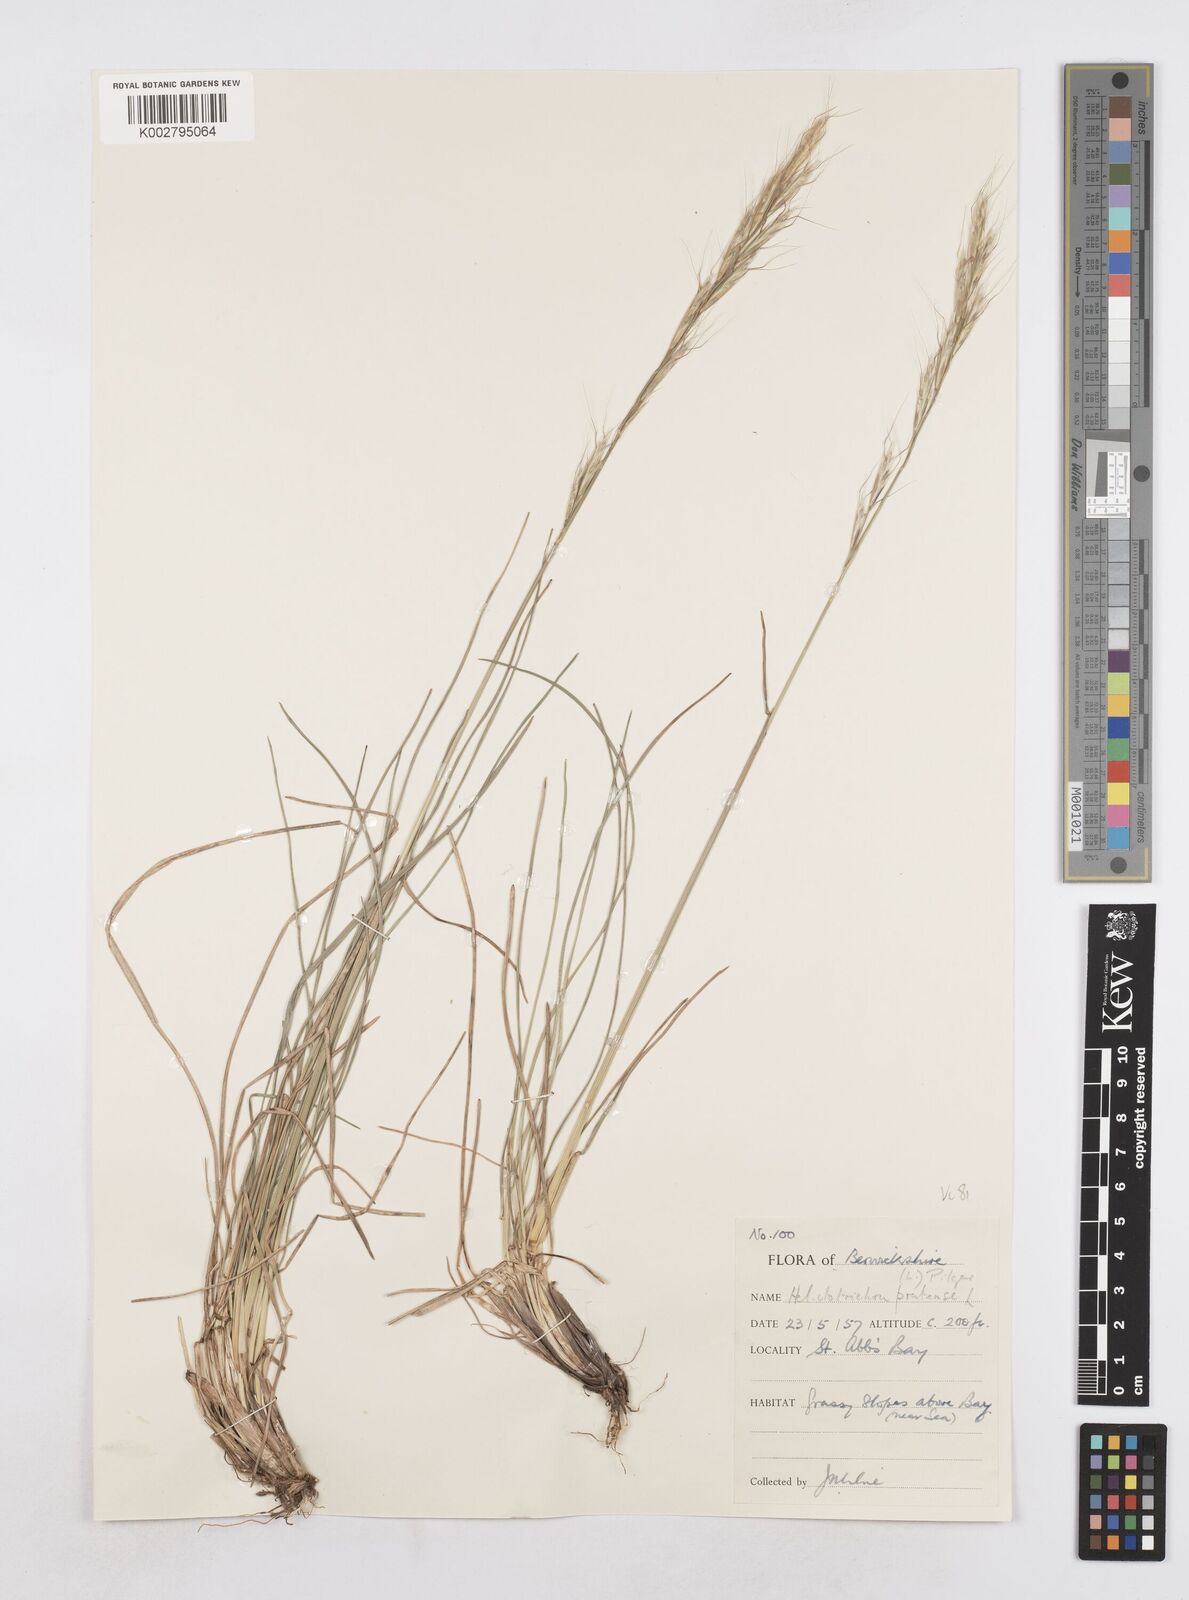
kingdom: Plantae
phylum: Tracheophyta
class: Liliopsida
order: Poales
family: Poaceae
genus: Helictotrichon
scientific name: Helictotrichon
